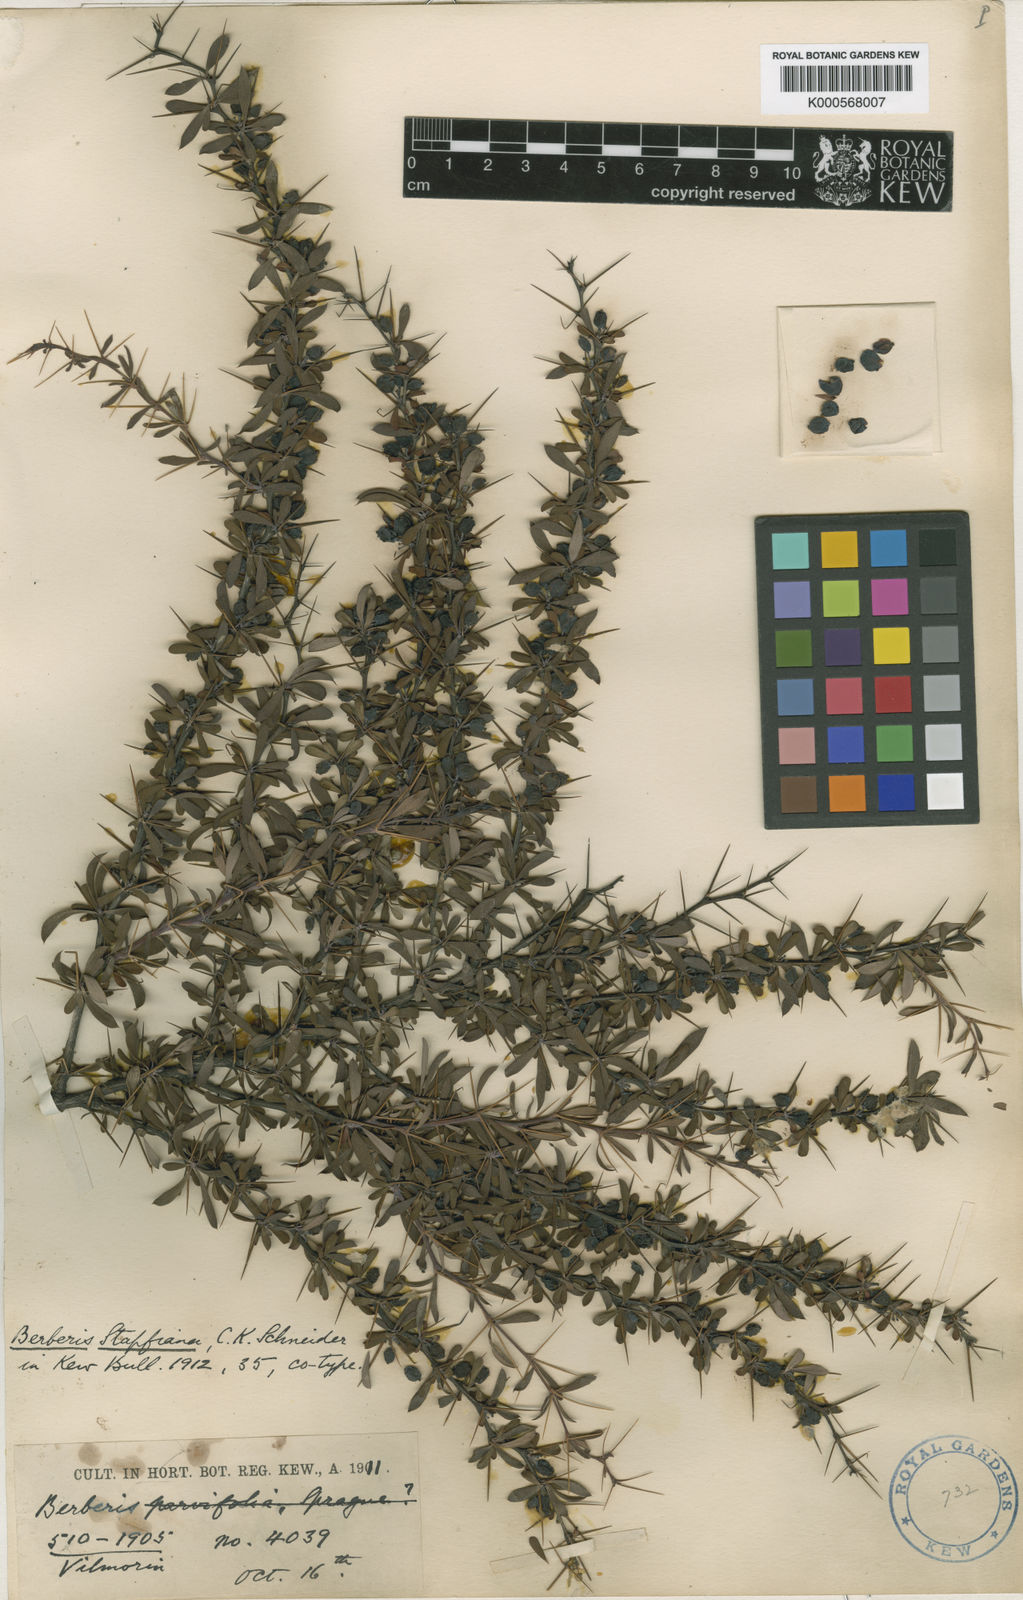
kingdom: Plantae
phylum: Tracheophyta
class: Magnoliopsida
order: Ranunculales
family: Berberidaceae
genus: Berberis
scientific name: Berberis wilsoniae
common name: Mrs wilson's barberry
